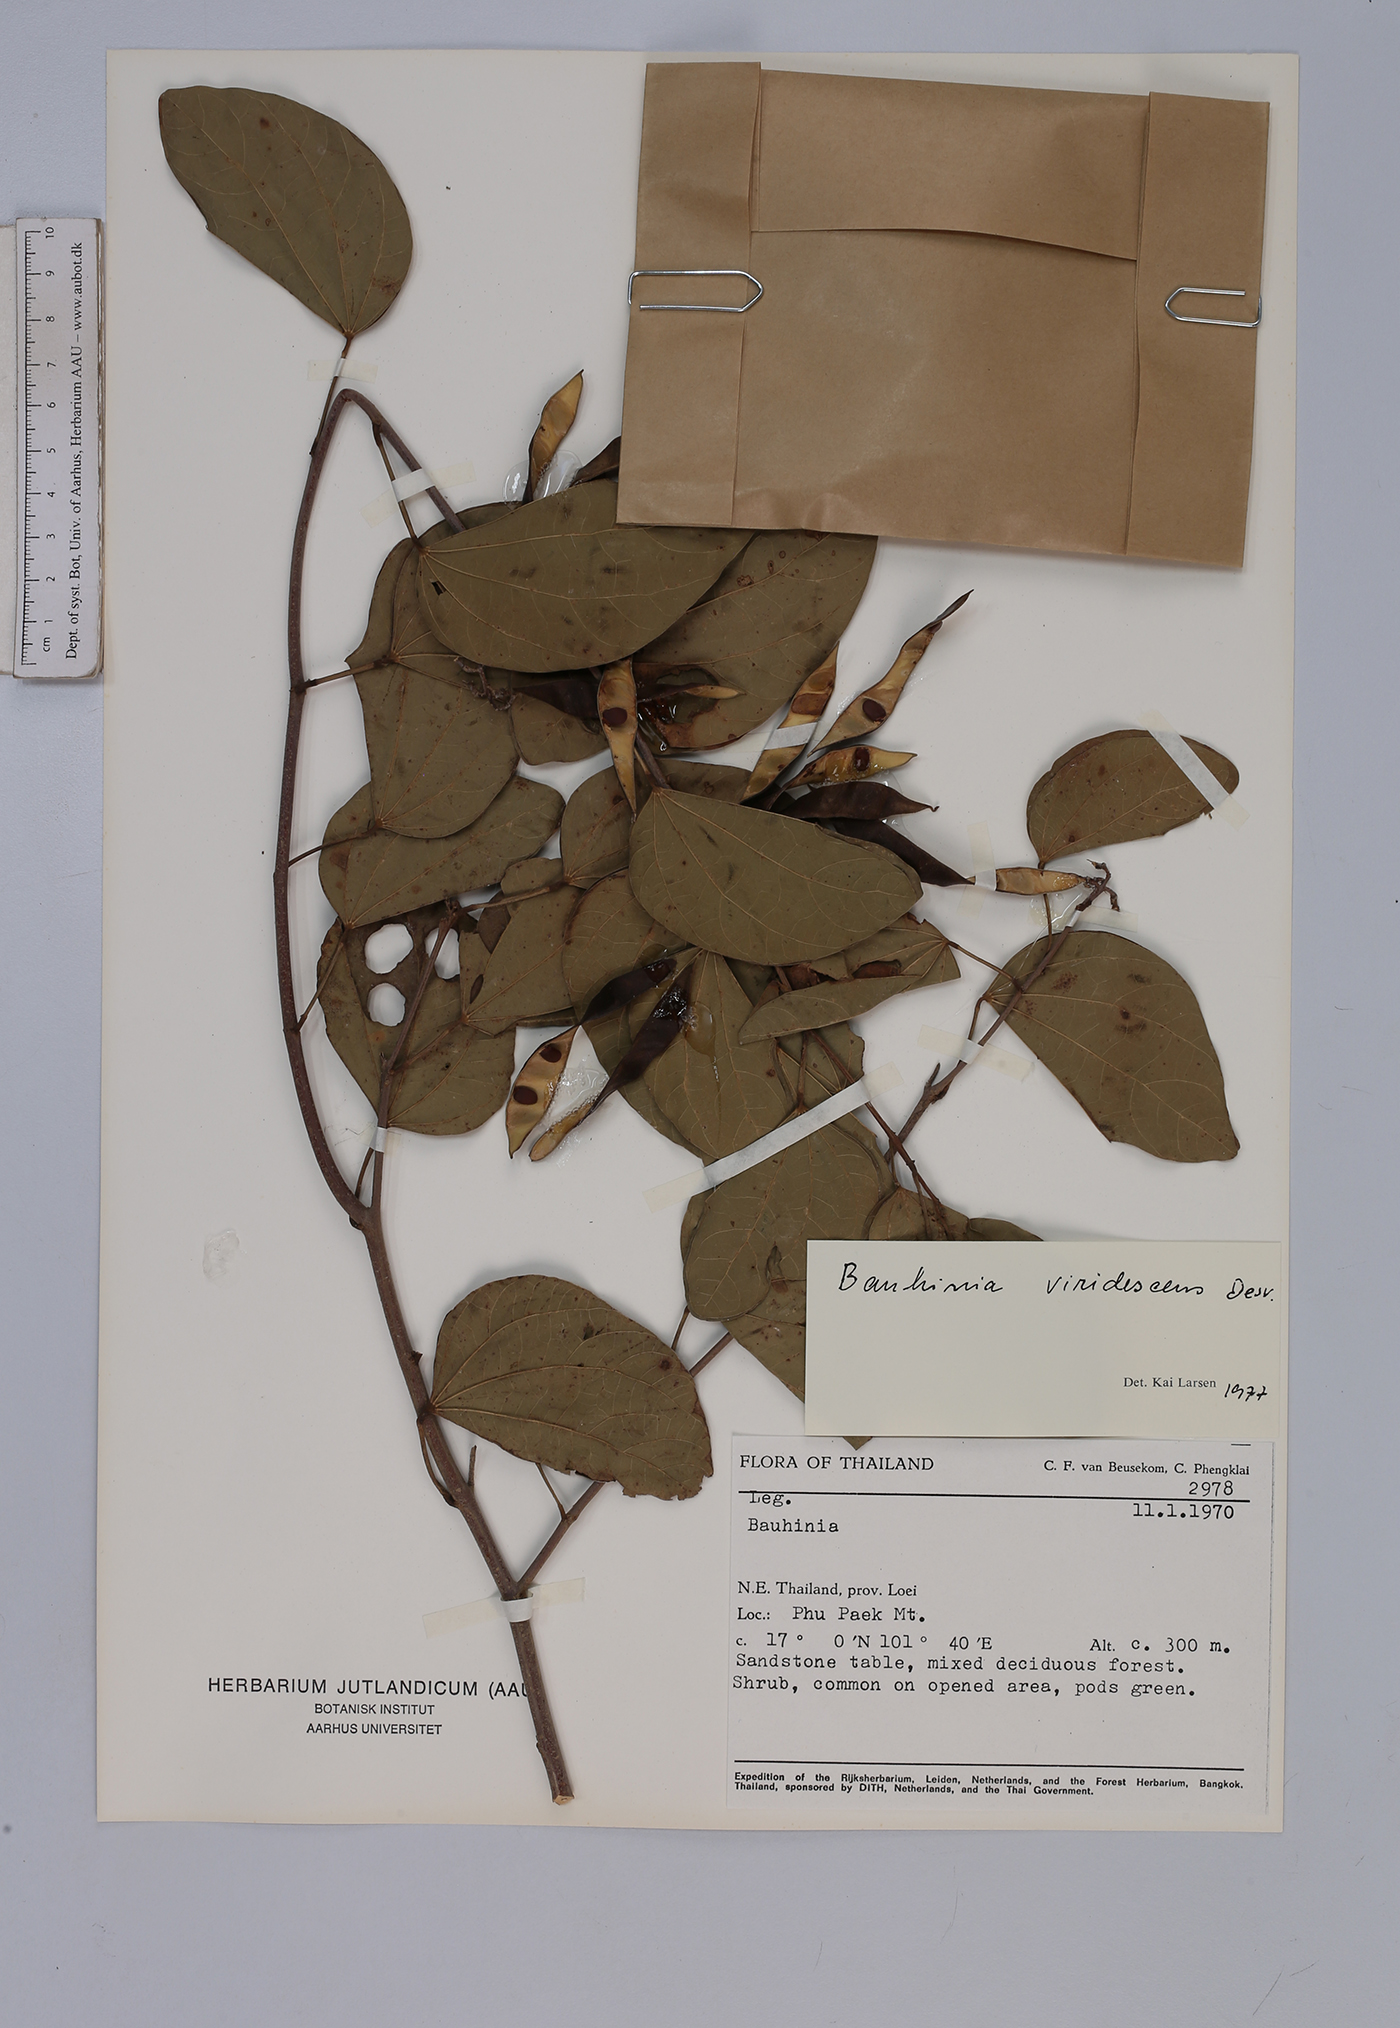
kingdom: Plantae
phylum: Tracheophyta
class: Magnoliopsida
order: Fabales
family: Fabaceae
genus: Bauhinia
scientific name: Bauhinia viridescens
